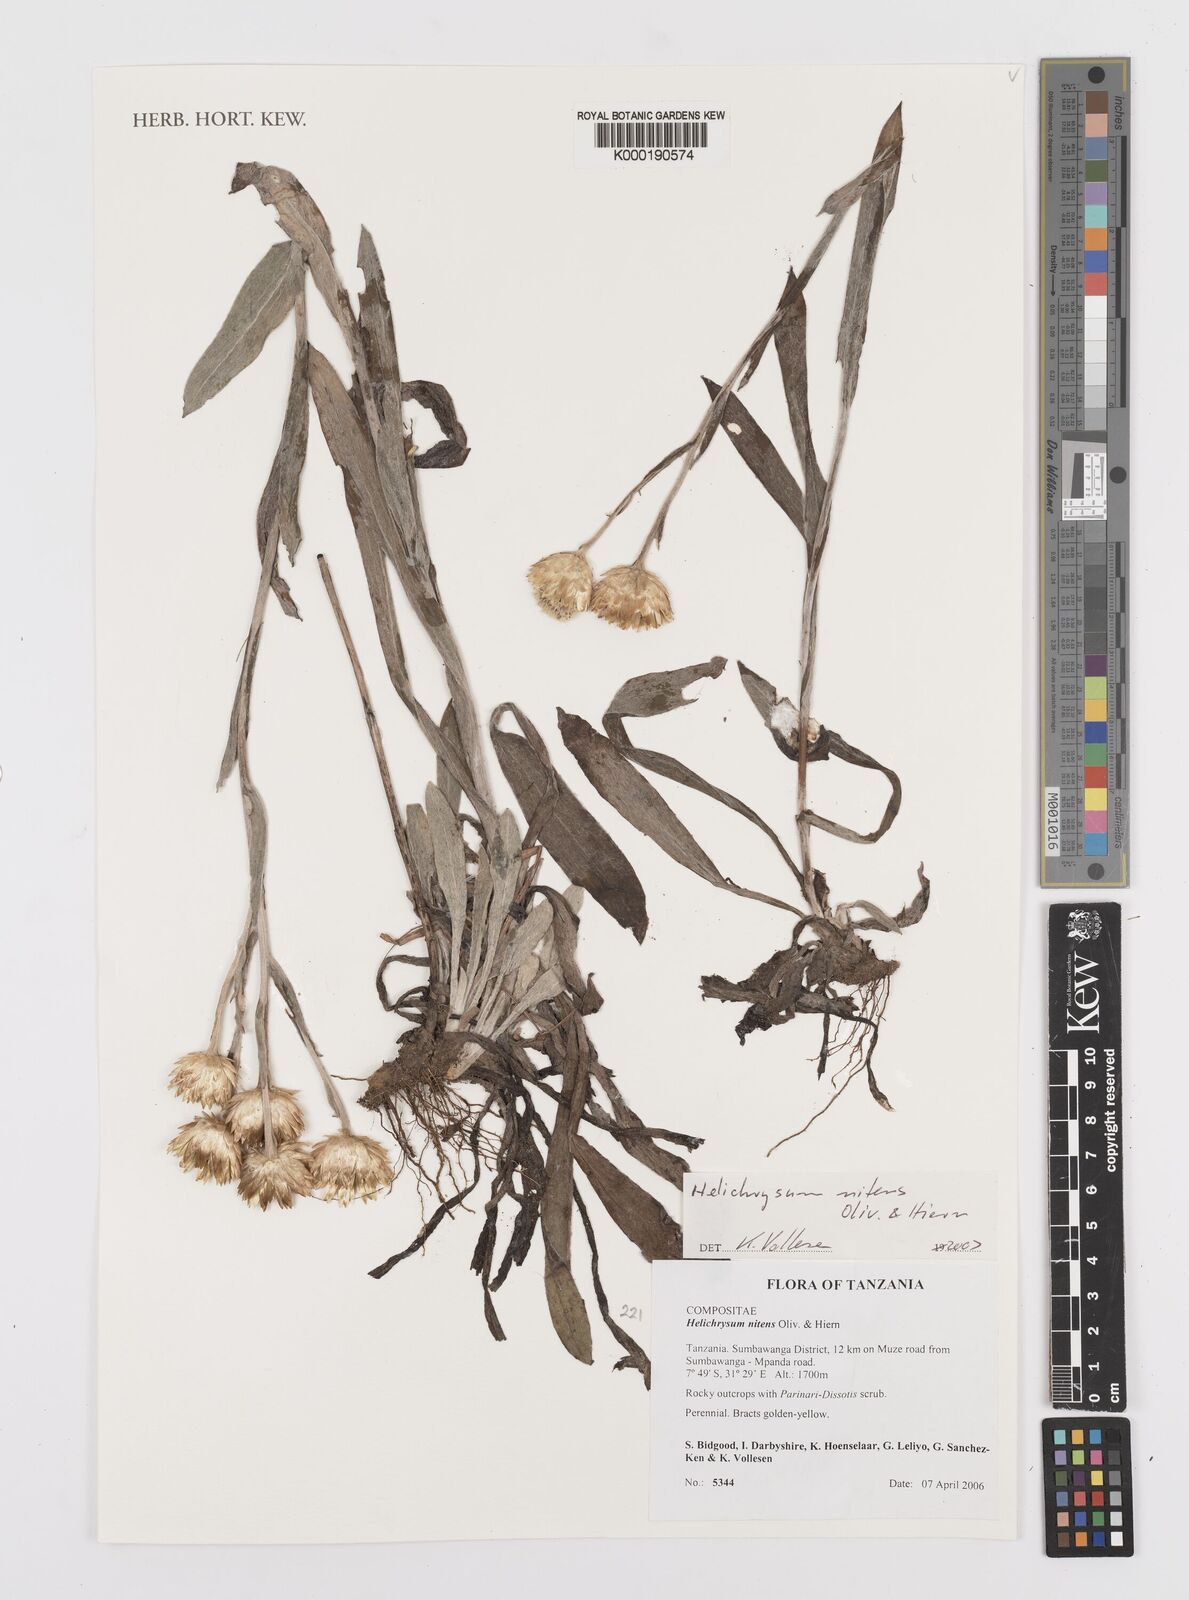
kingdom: Plantae
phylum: Tracheophyta
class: Magnoliopsida
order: Asterales
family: Asteraceae
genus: Helichrysum
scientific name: Helichrysum nitens
